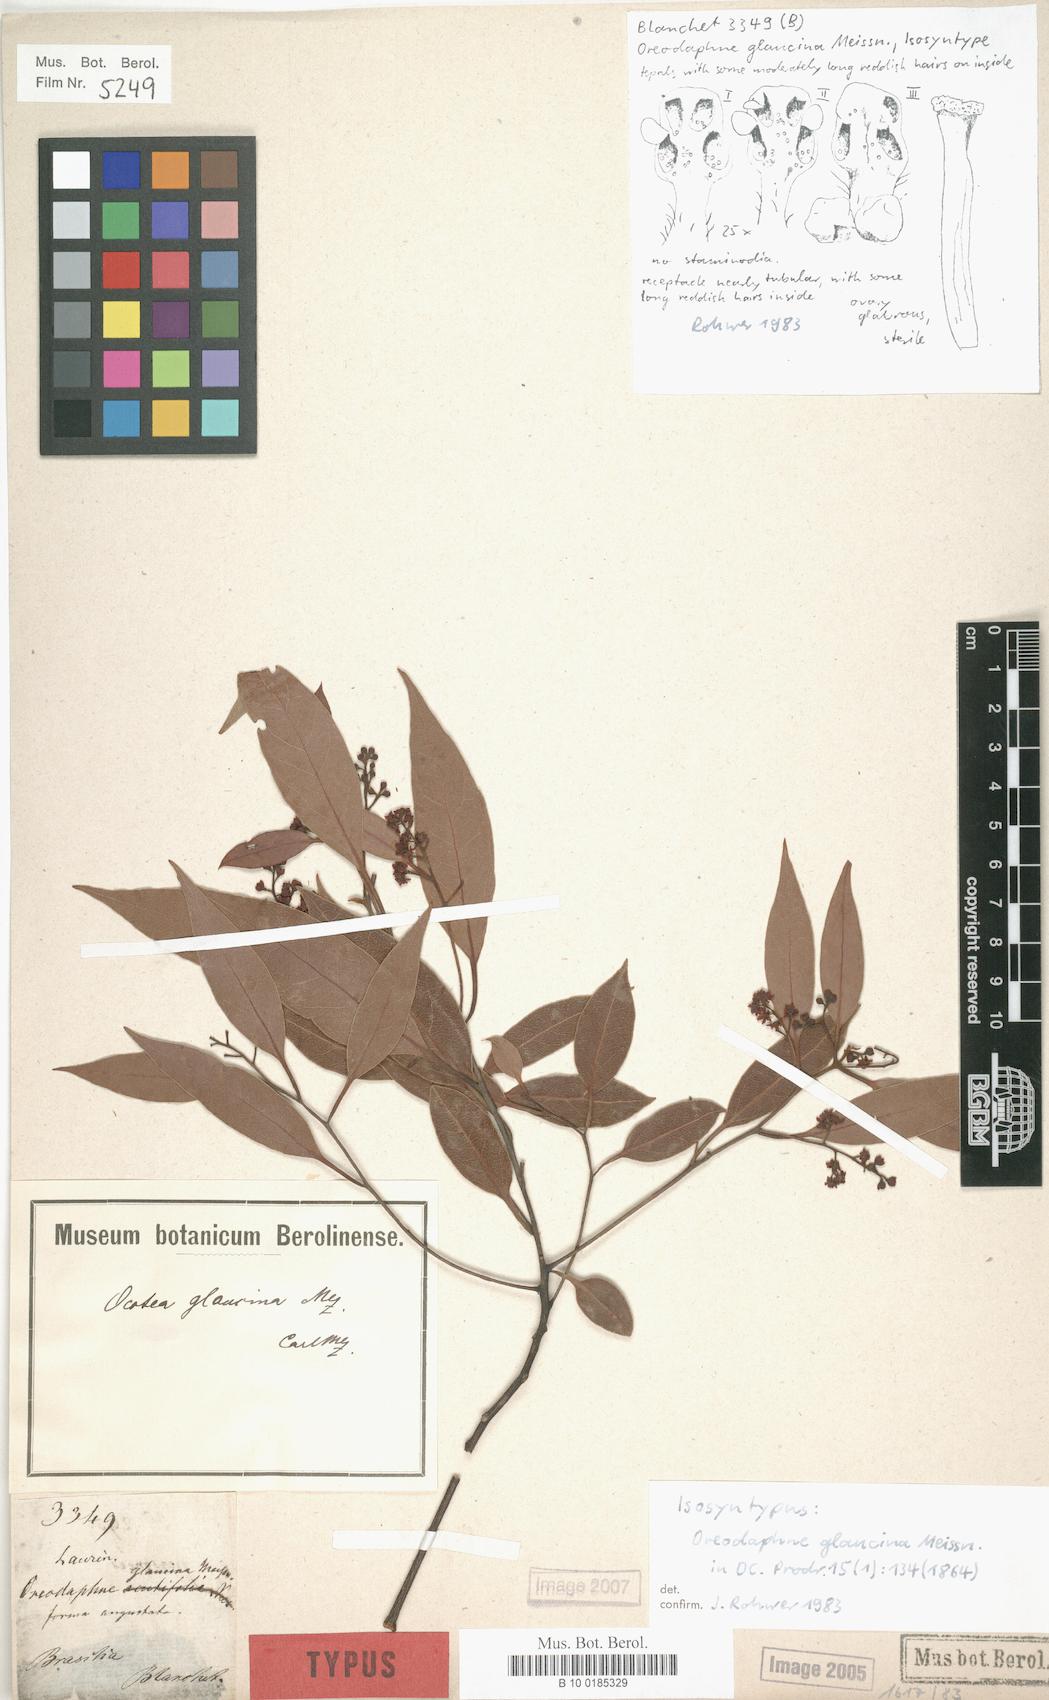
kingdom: Plantae
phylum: Tracheophyta
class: Magnoliopsida
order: Laurales
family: Lauraceae
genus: Mespilodaphne
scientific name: Mespilodaphne notata
